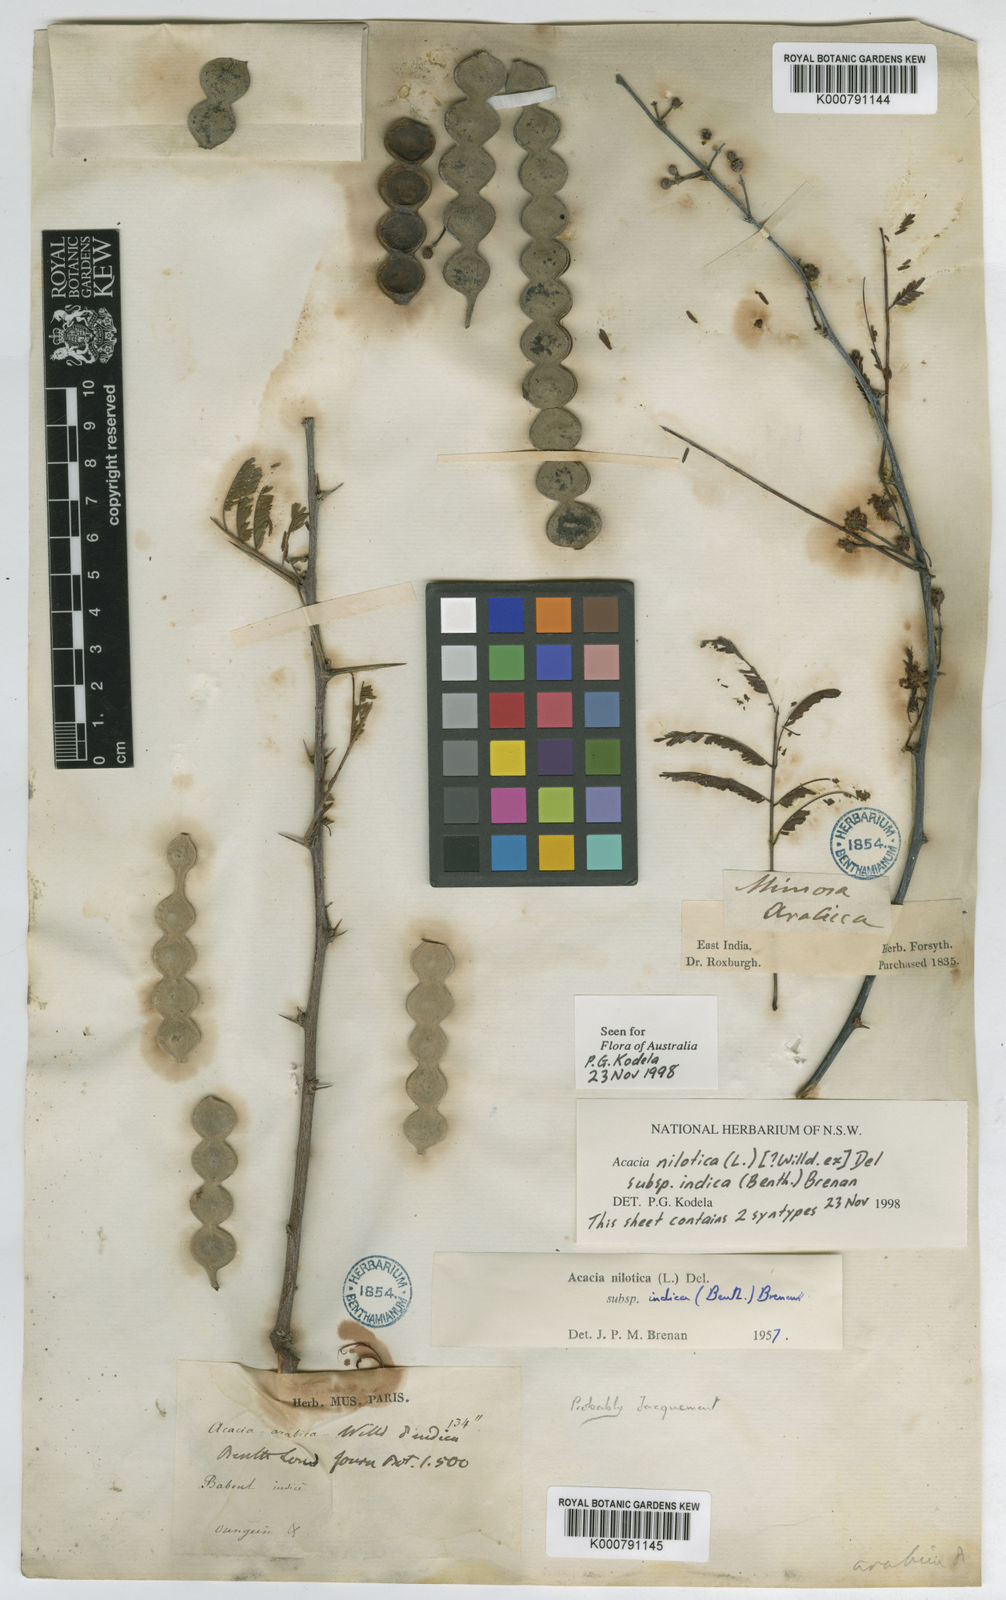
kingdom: Plantae
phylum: Tracheophyta
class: Magnoliopsida
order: Fabales
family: Fabaceae
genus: Vachellia
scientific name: Vachellia nilotica
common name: Arabic gumtree
